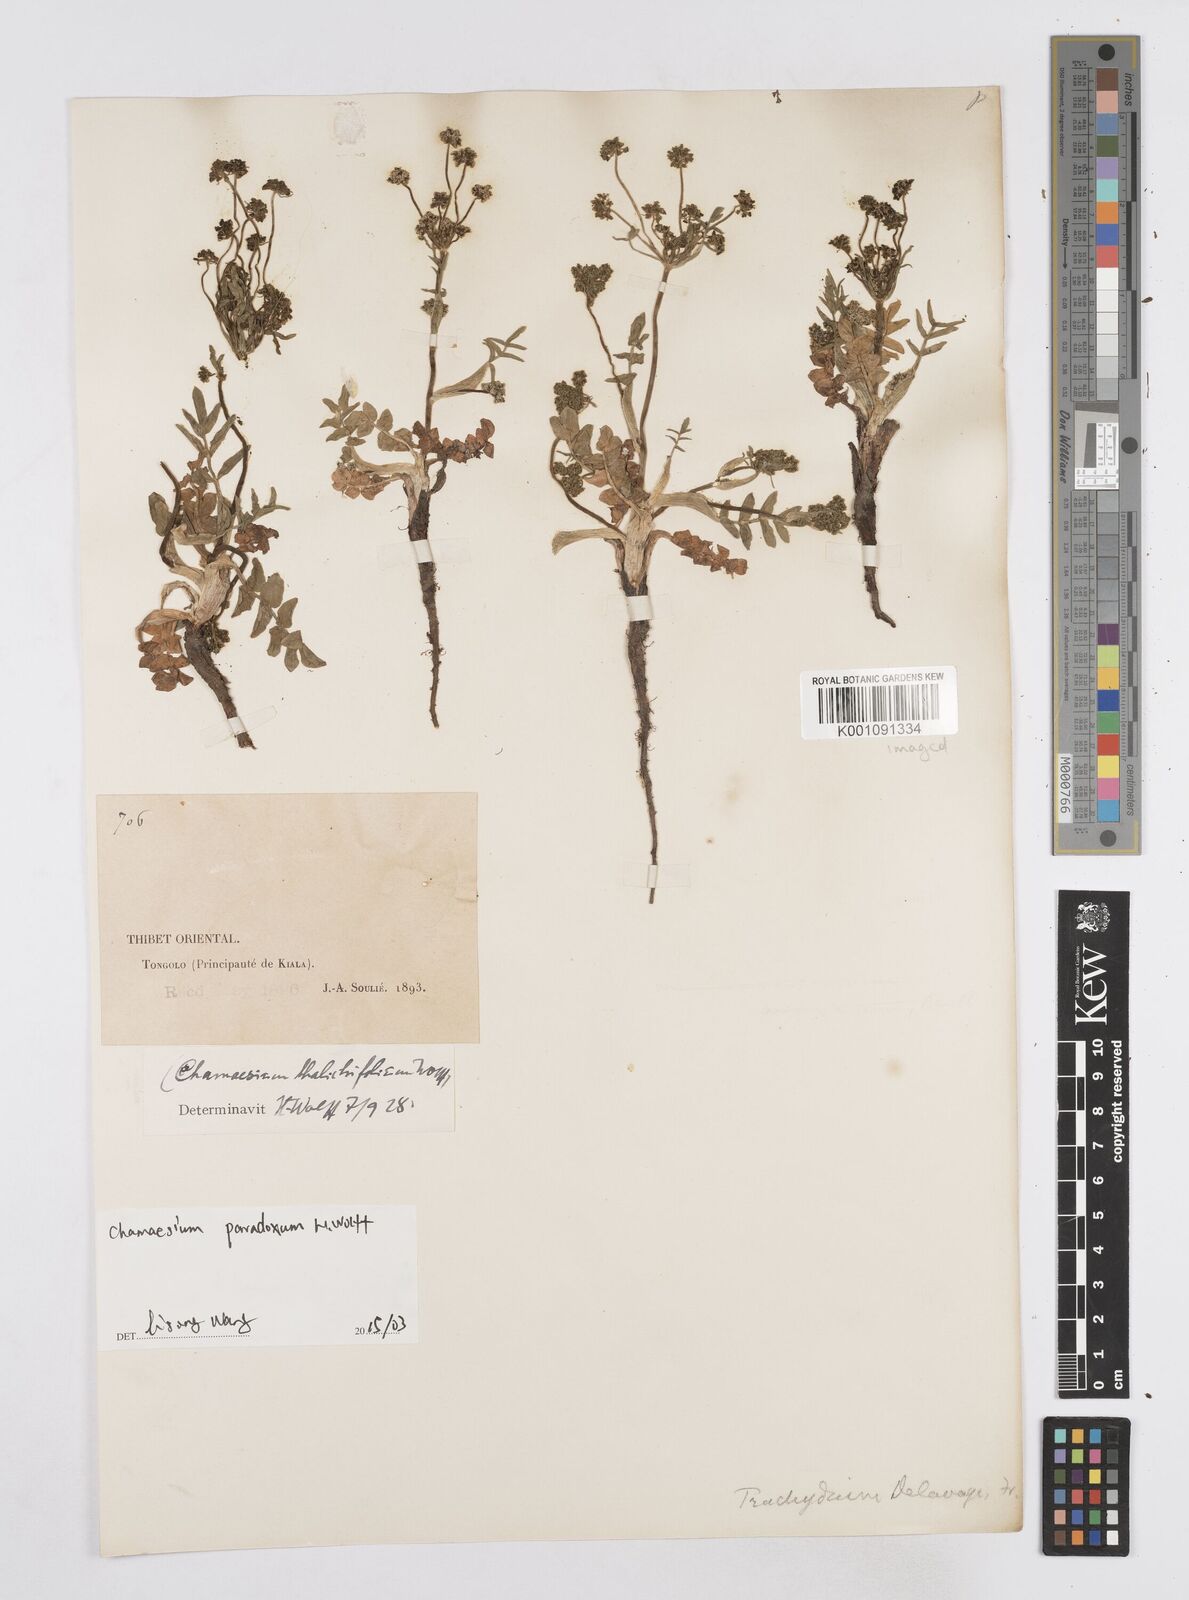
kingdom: Plantae
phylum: Tracheophyta
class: Magnoliopsida
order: Apiales
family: Apiaceae
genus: Chamaesium
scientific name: Chamaesium paradoxum
